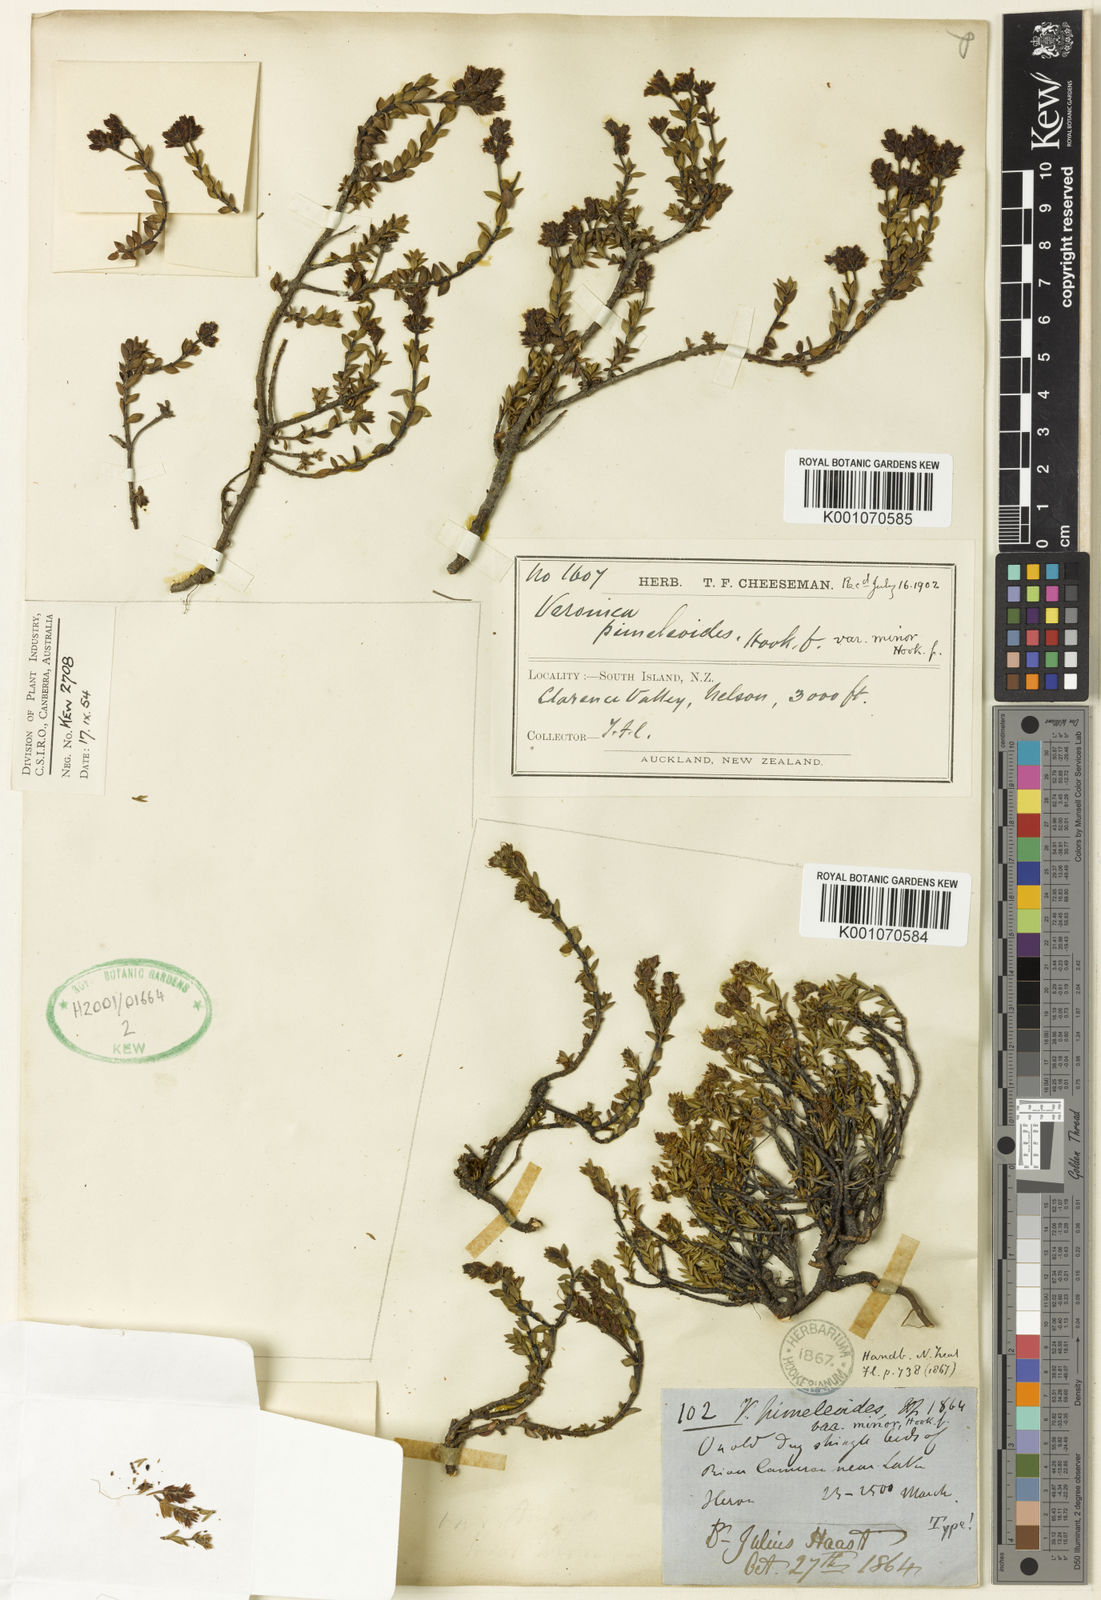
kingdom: Plantae
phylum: Tracheophyta
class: Magnoliopsida
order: Lamiales
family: Plantaginaceae
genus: Veronica
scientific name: Veronica pimeleoides
